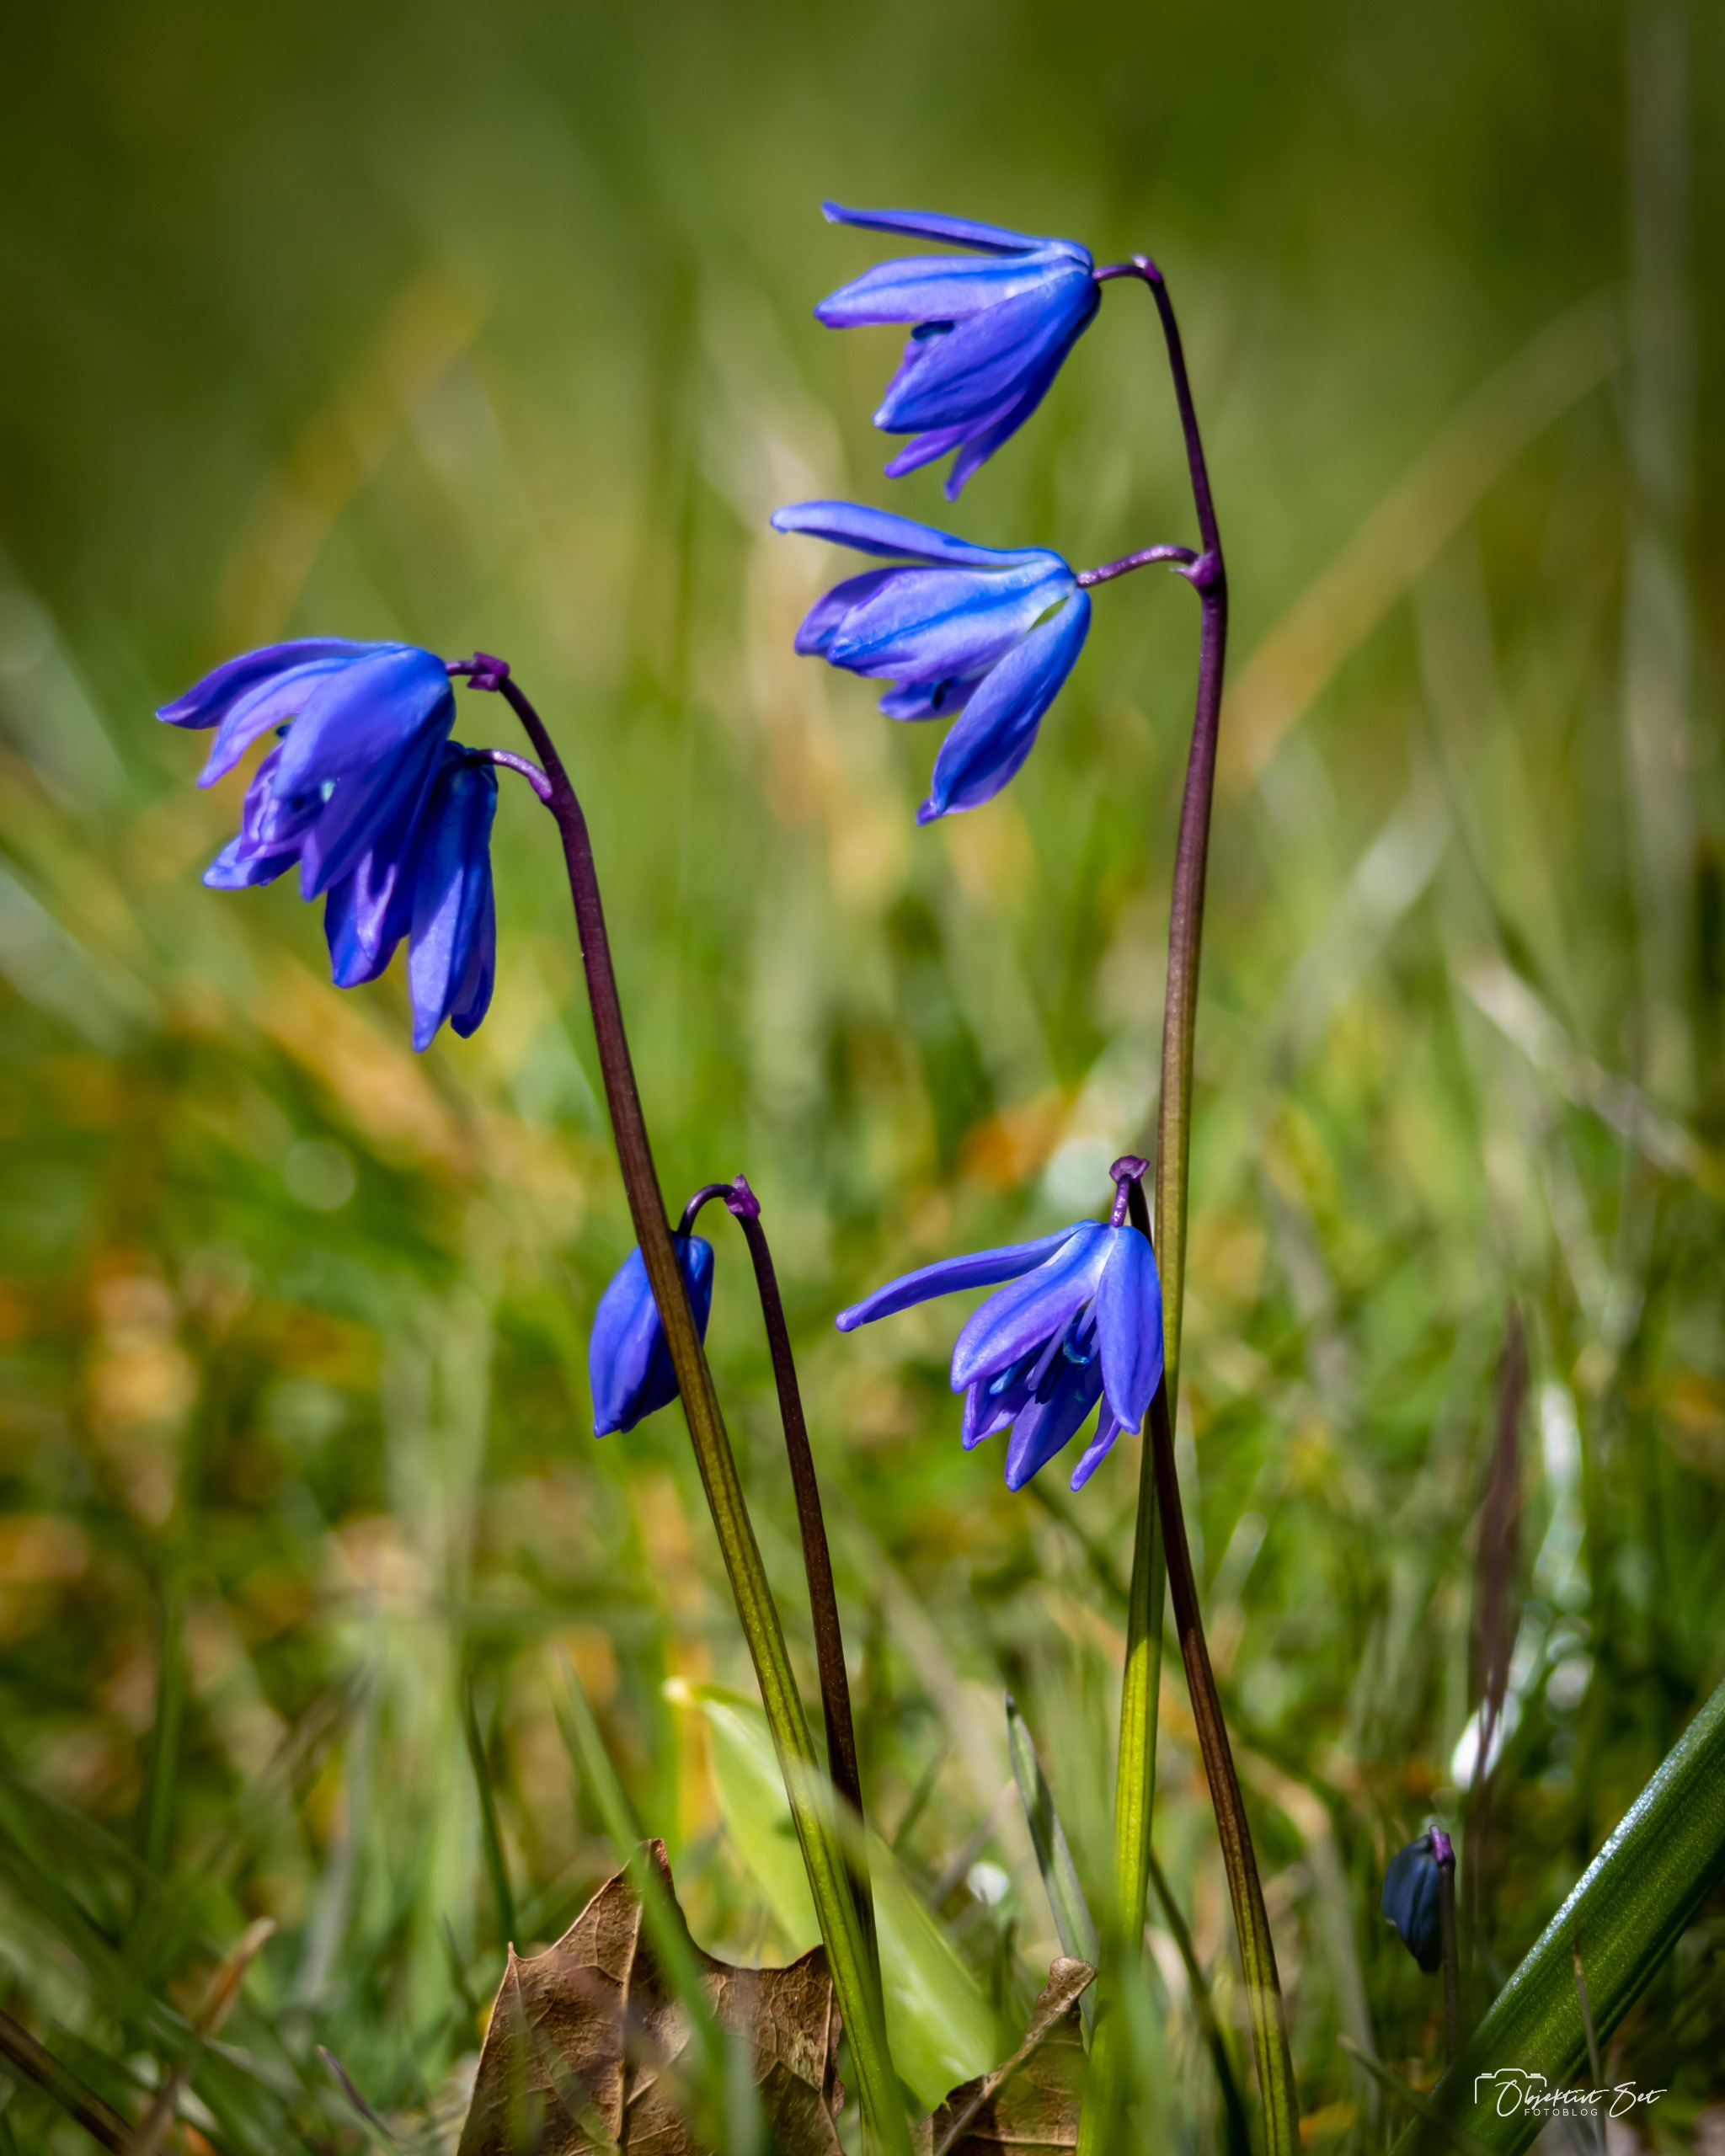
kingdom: Plantae
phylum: Tracheophyta
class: Liliopsida
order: Asparagales
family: Asparagaceae
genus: Scilla
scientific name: Scilla siberica
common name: Russisk skilla
